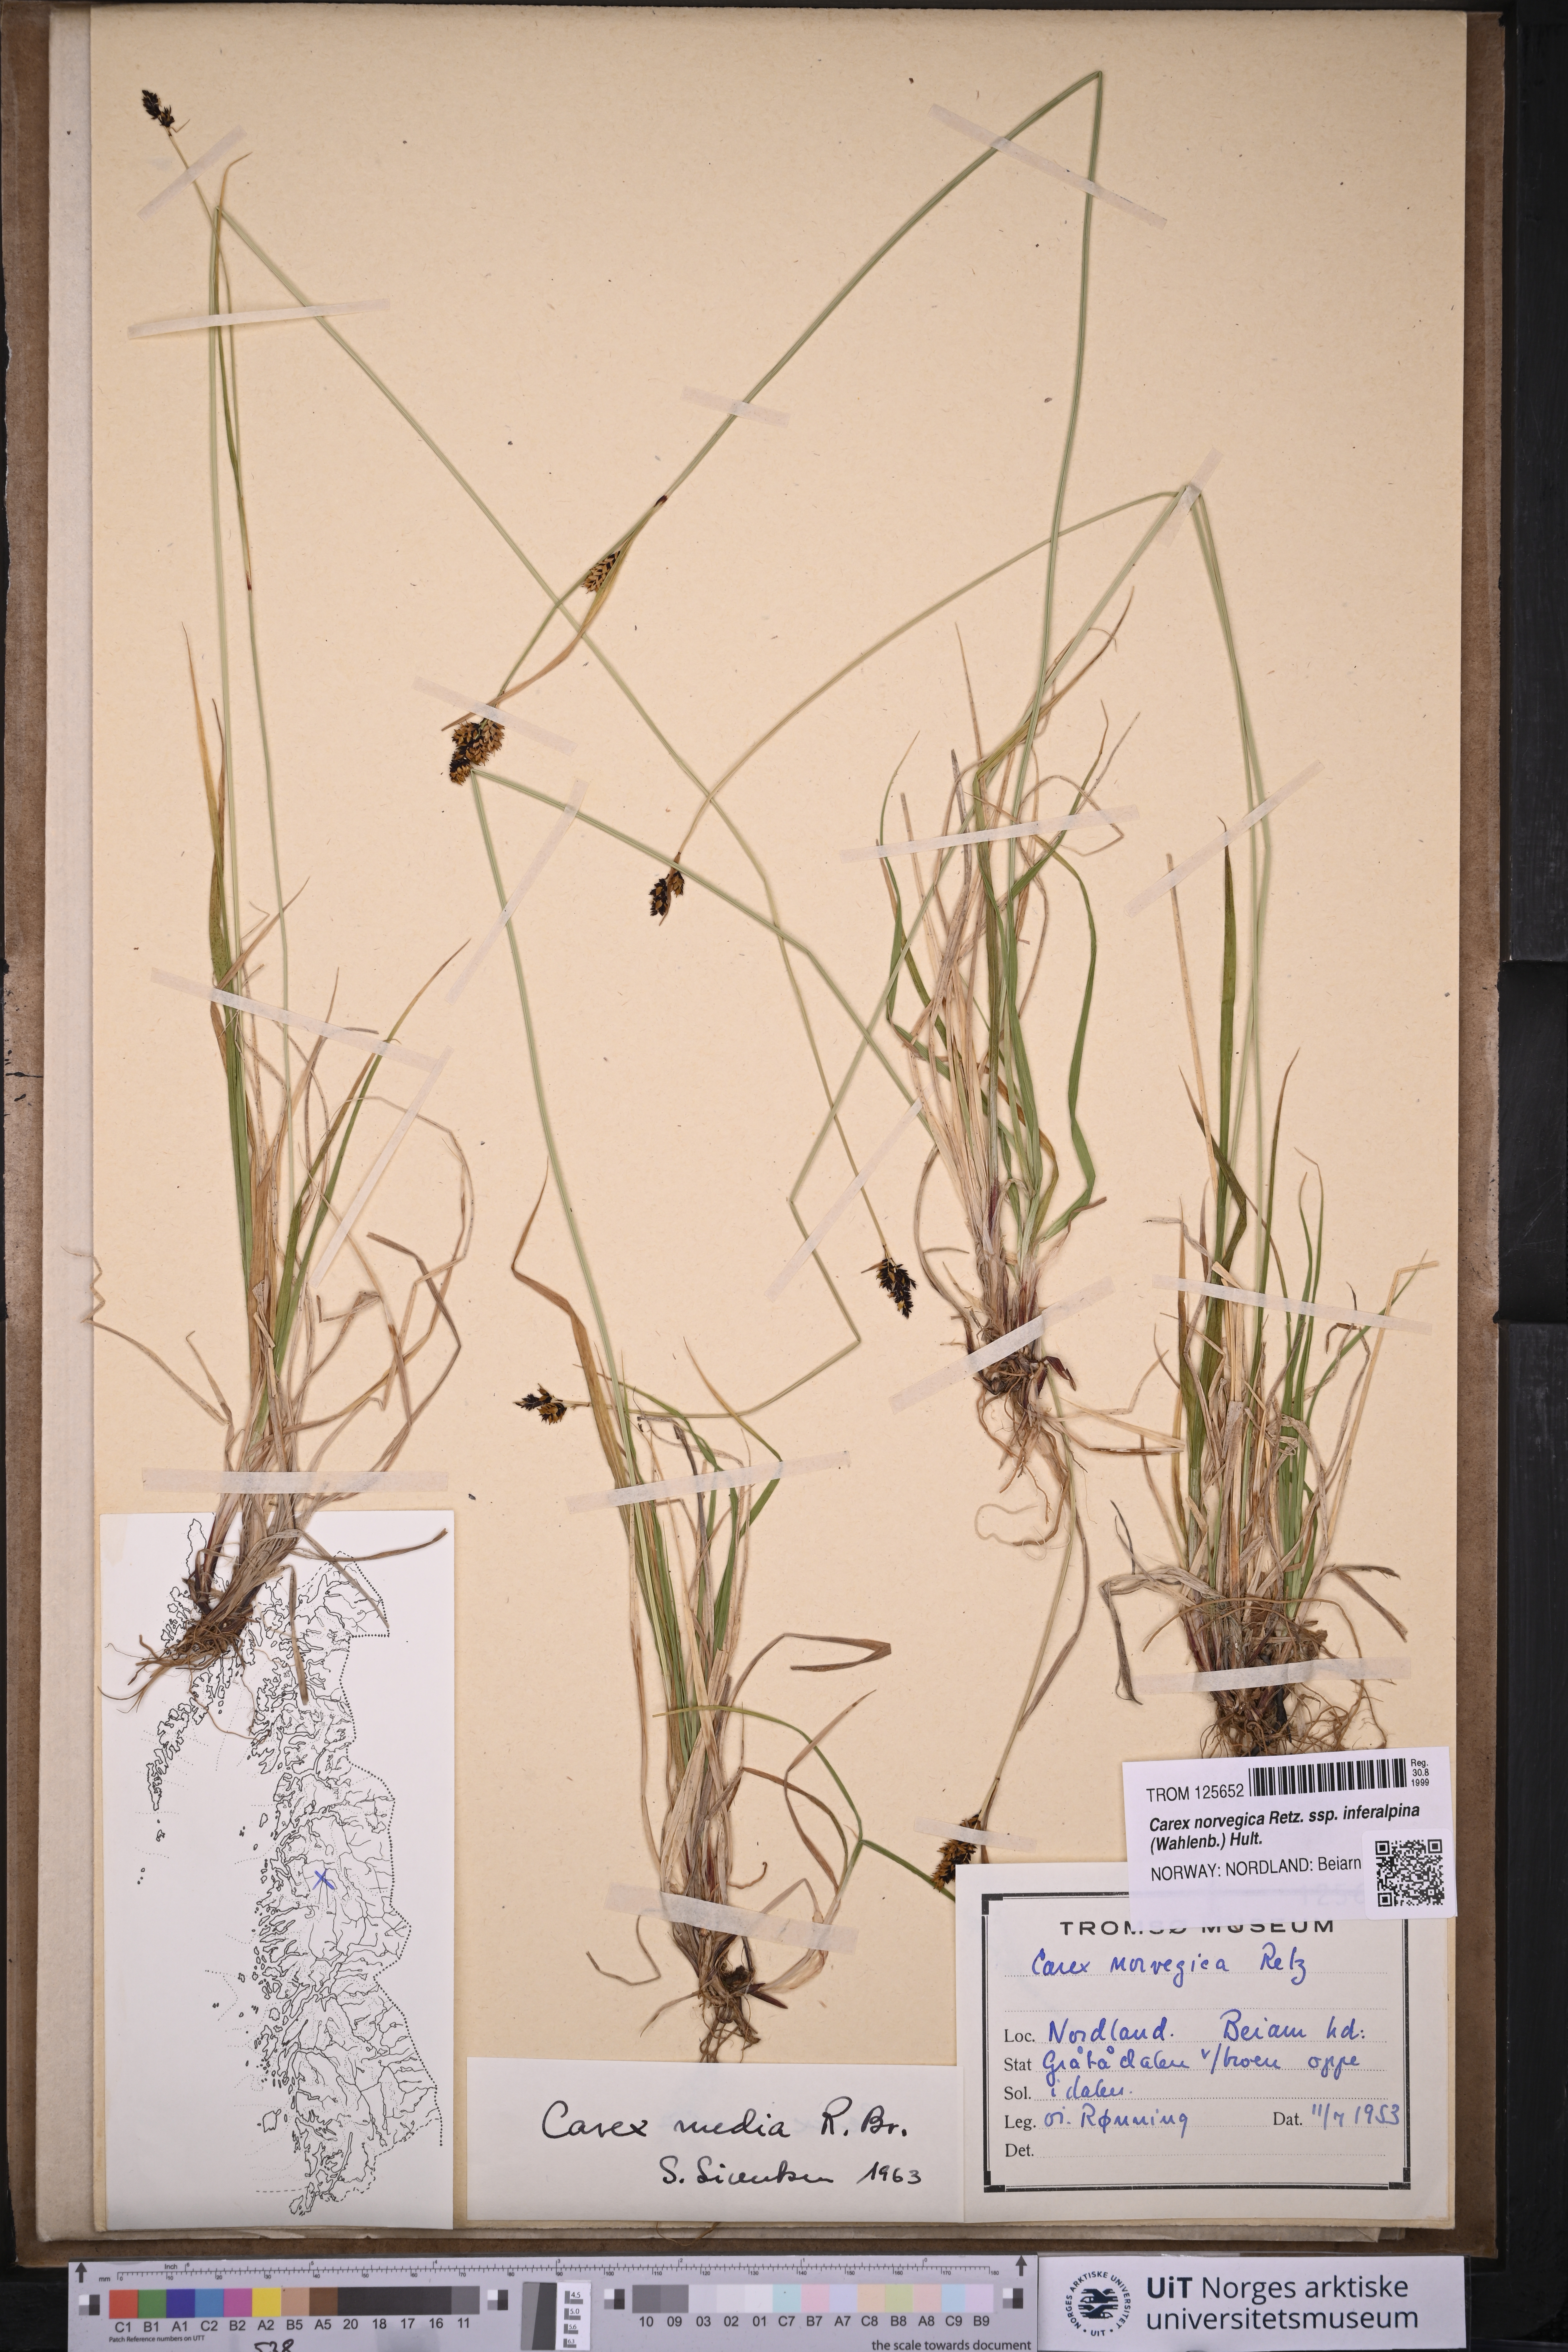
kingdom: Plantae
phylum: Tracheophyta
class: Liliopsida
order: Poales
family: Cyperaceae
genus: Carex
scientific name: Carex media
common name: Alpine sedge
